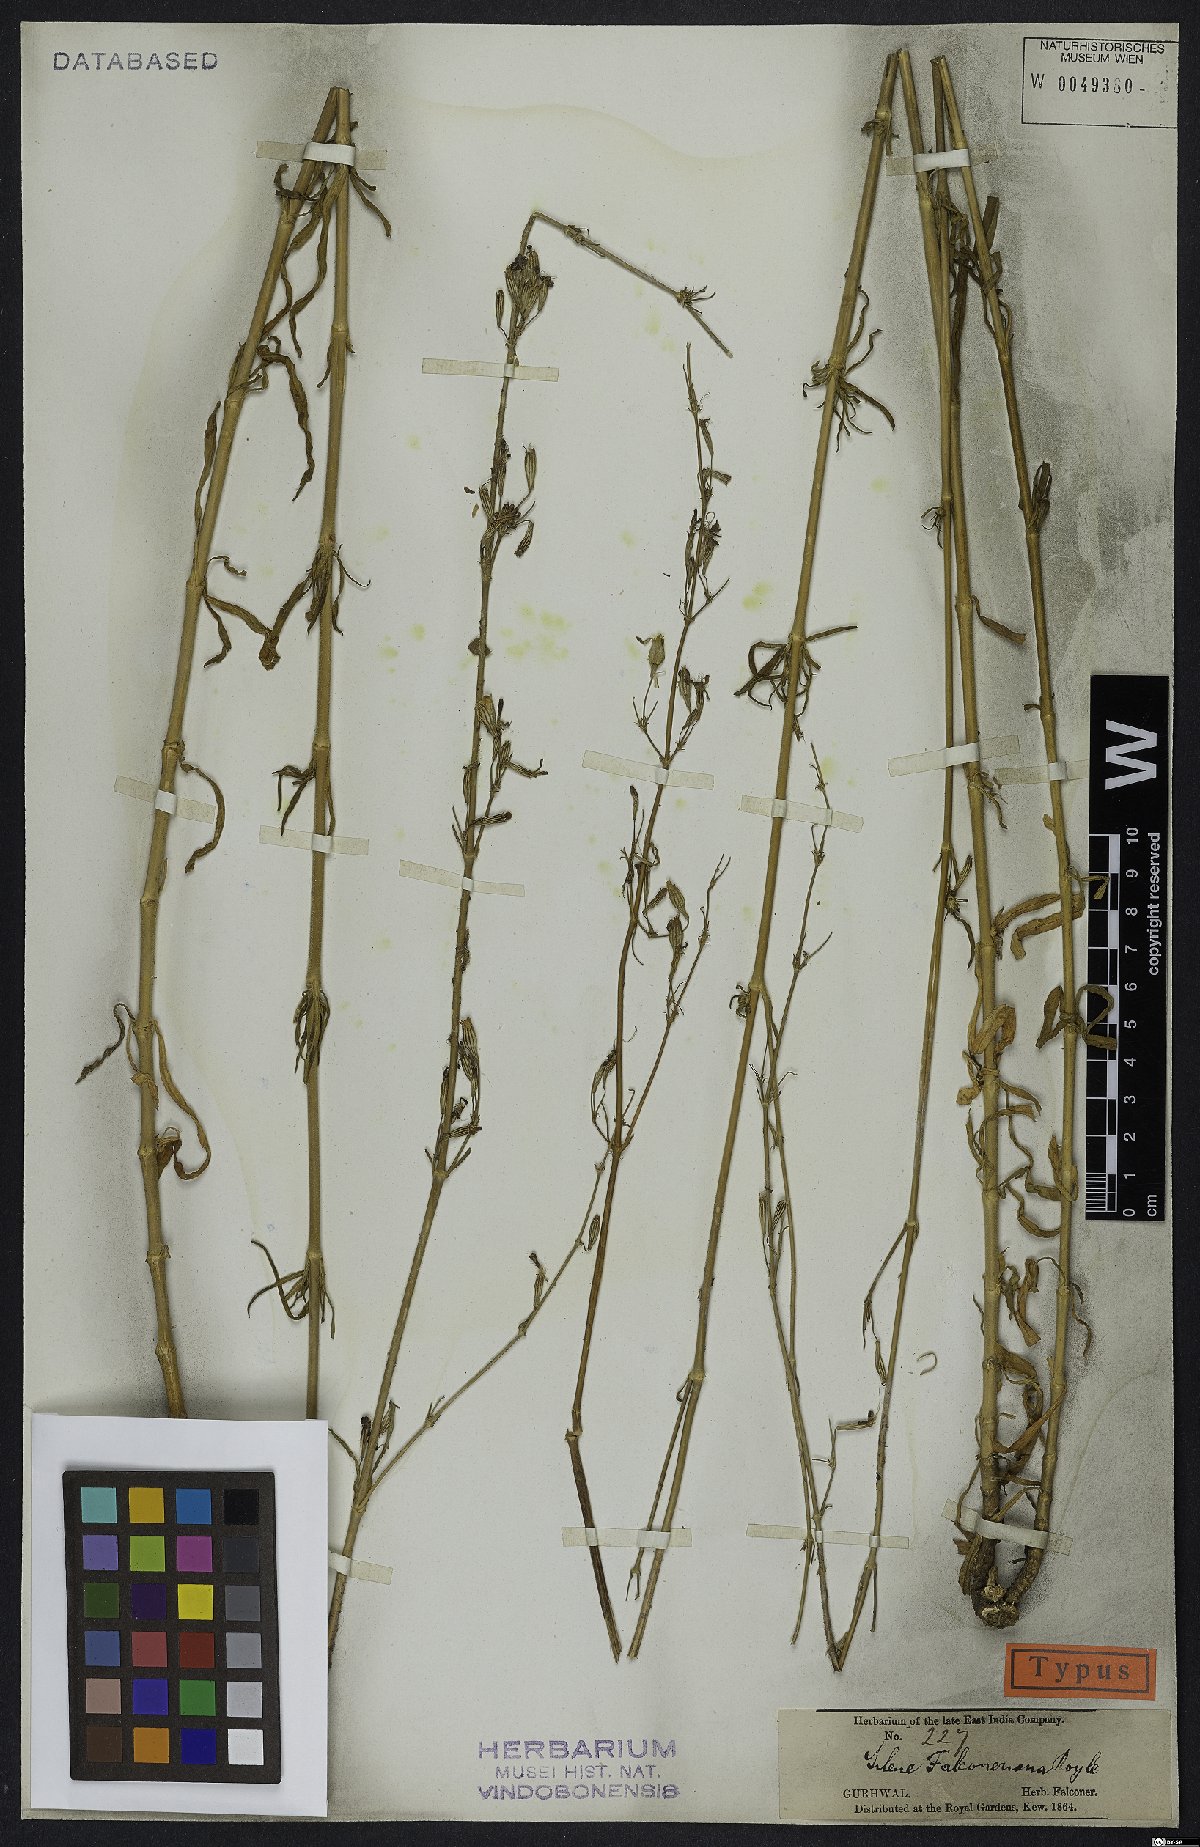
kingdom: Plantae
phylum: Tracheophyta
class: Magnoliopsida
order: Caryophyllales
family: Caryophyllaceae
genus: Silene
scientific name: Silene falconeriana
